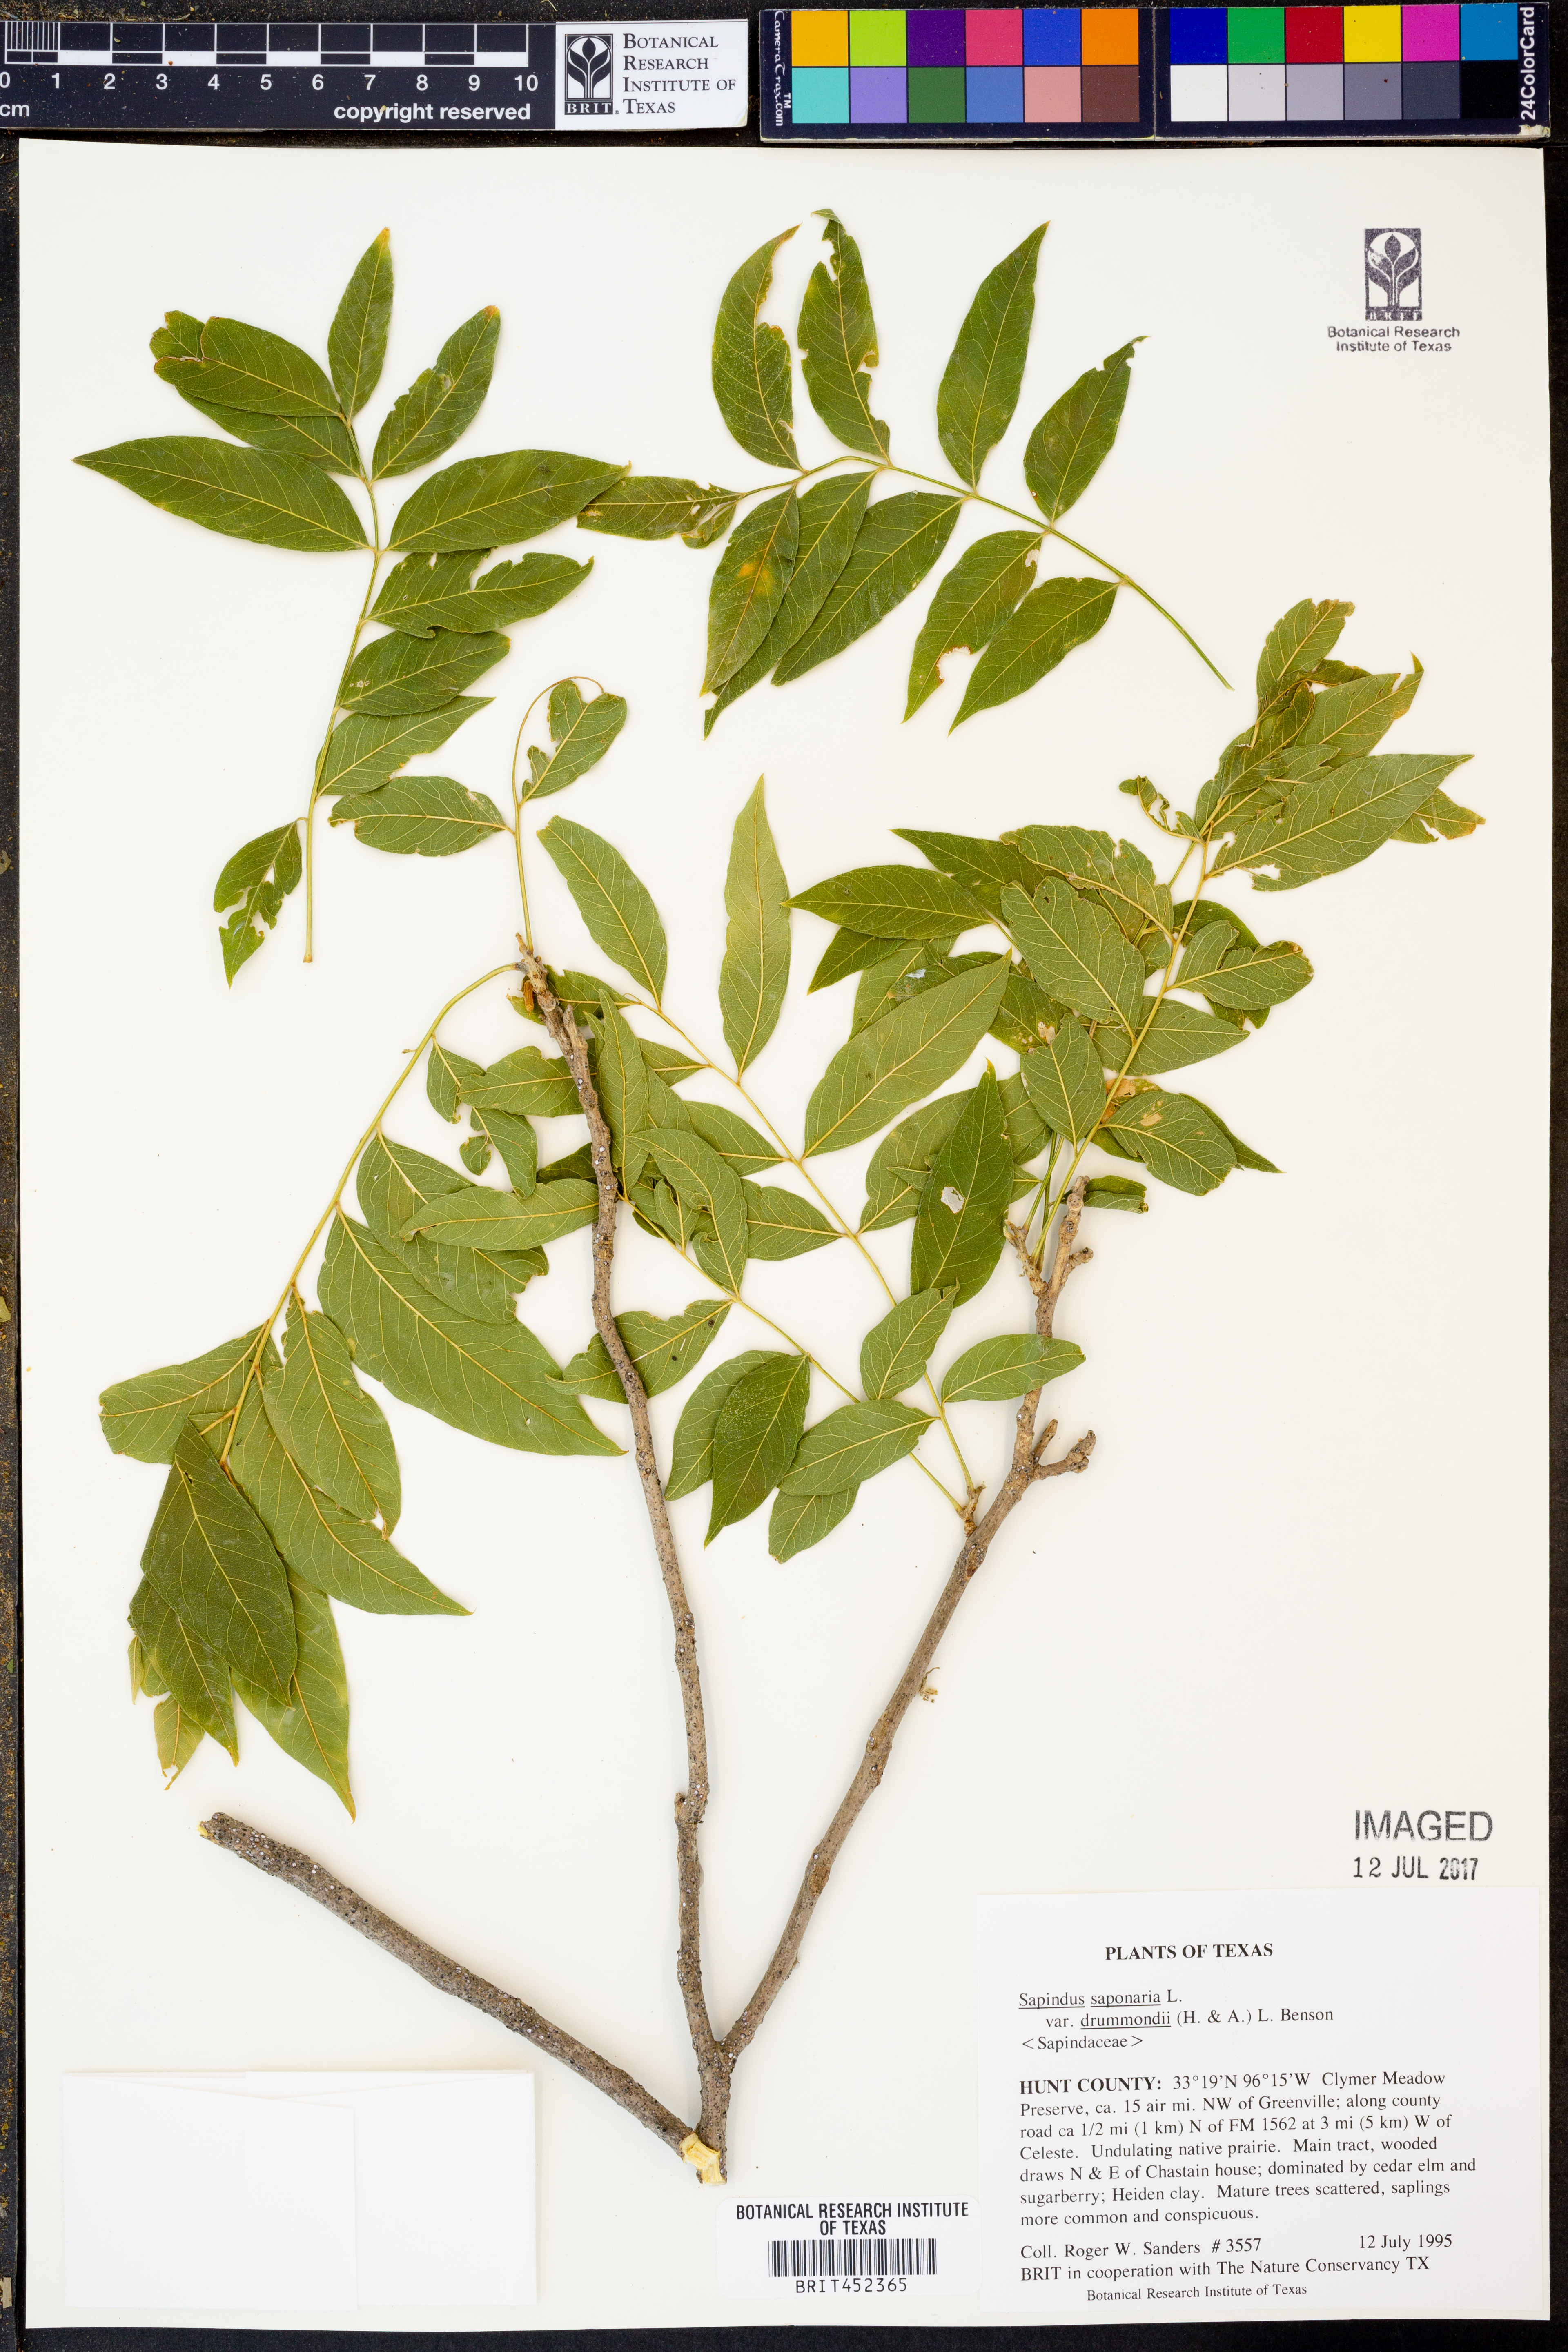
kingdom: Plantae
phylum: Tracheophyta
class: Magnoliopsida
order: Sapindales
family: Sapindaceae
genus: Sapindus
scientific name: Sapindus drummondii
